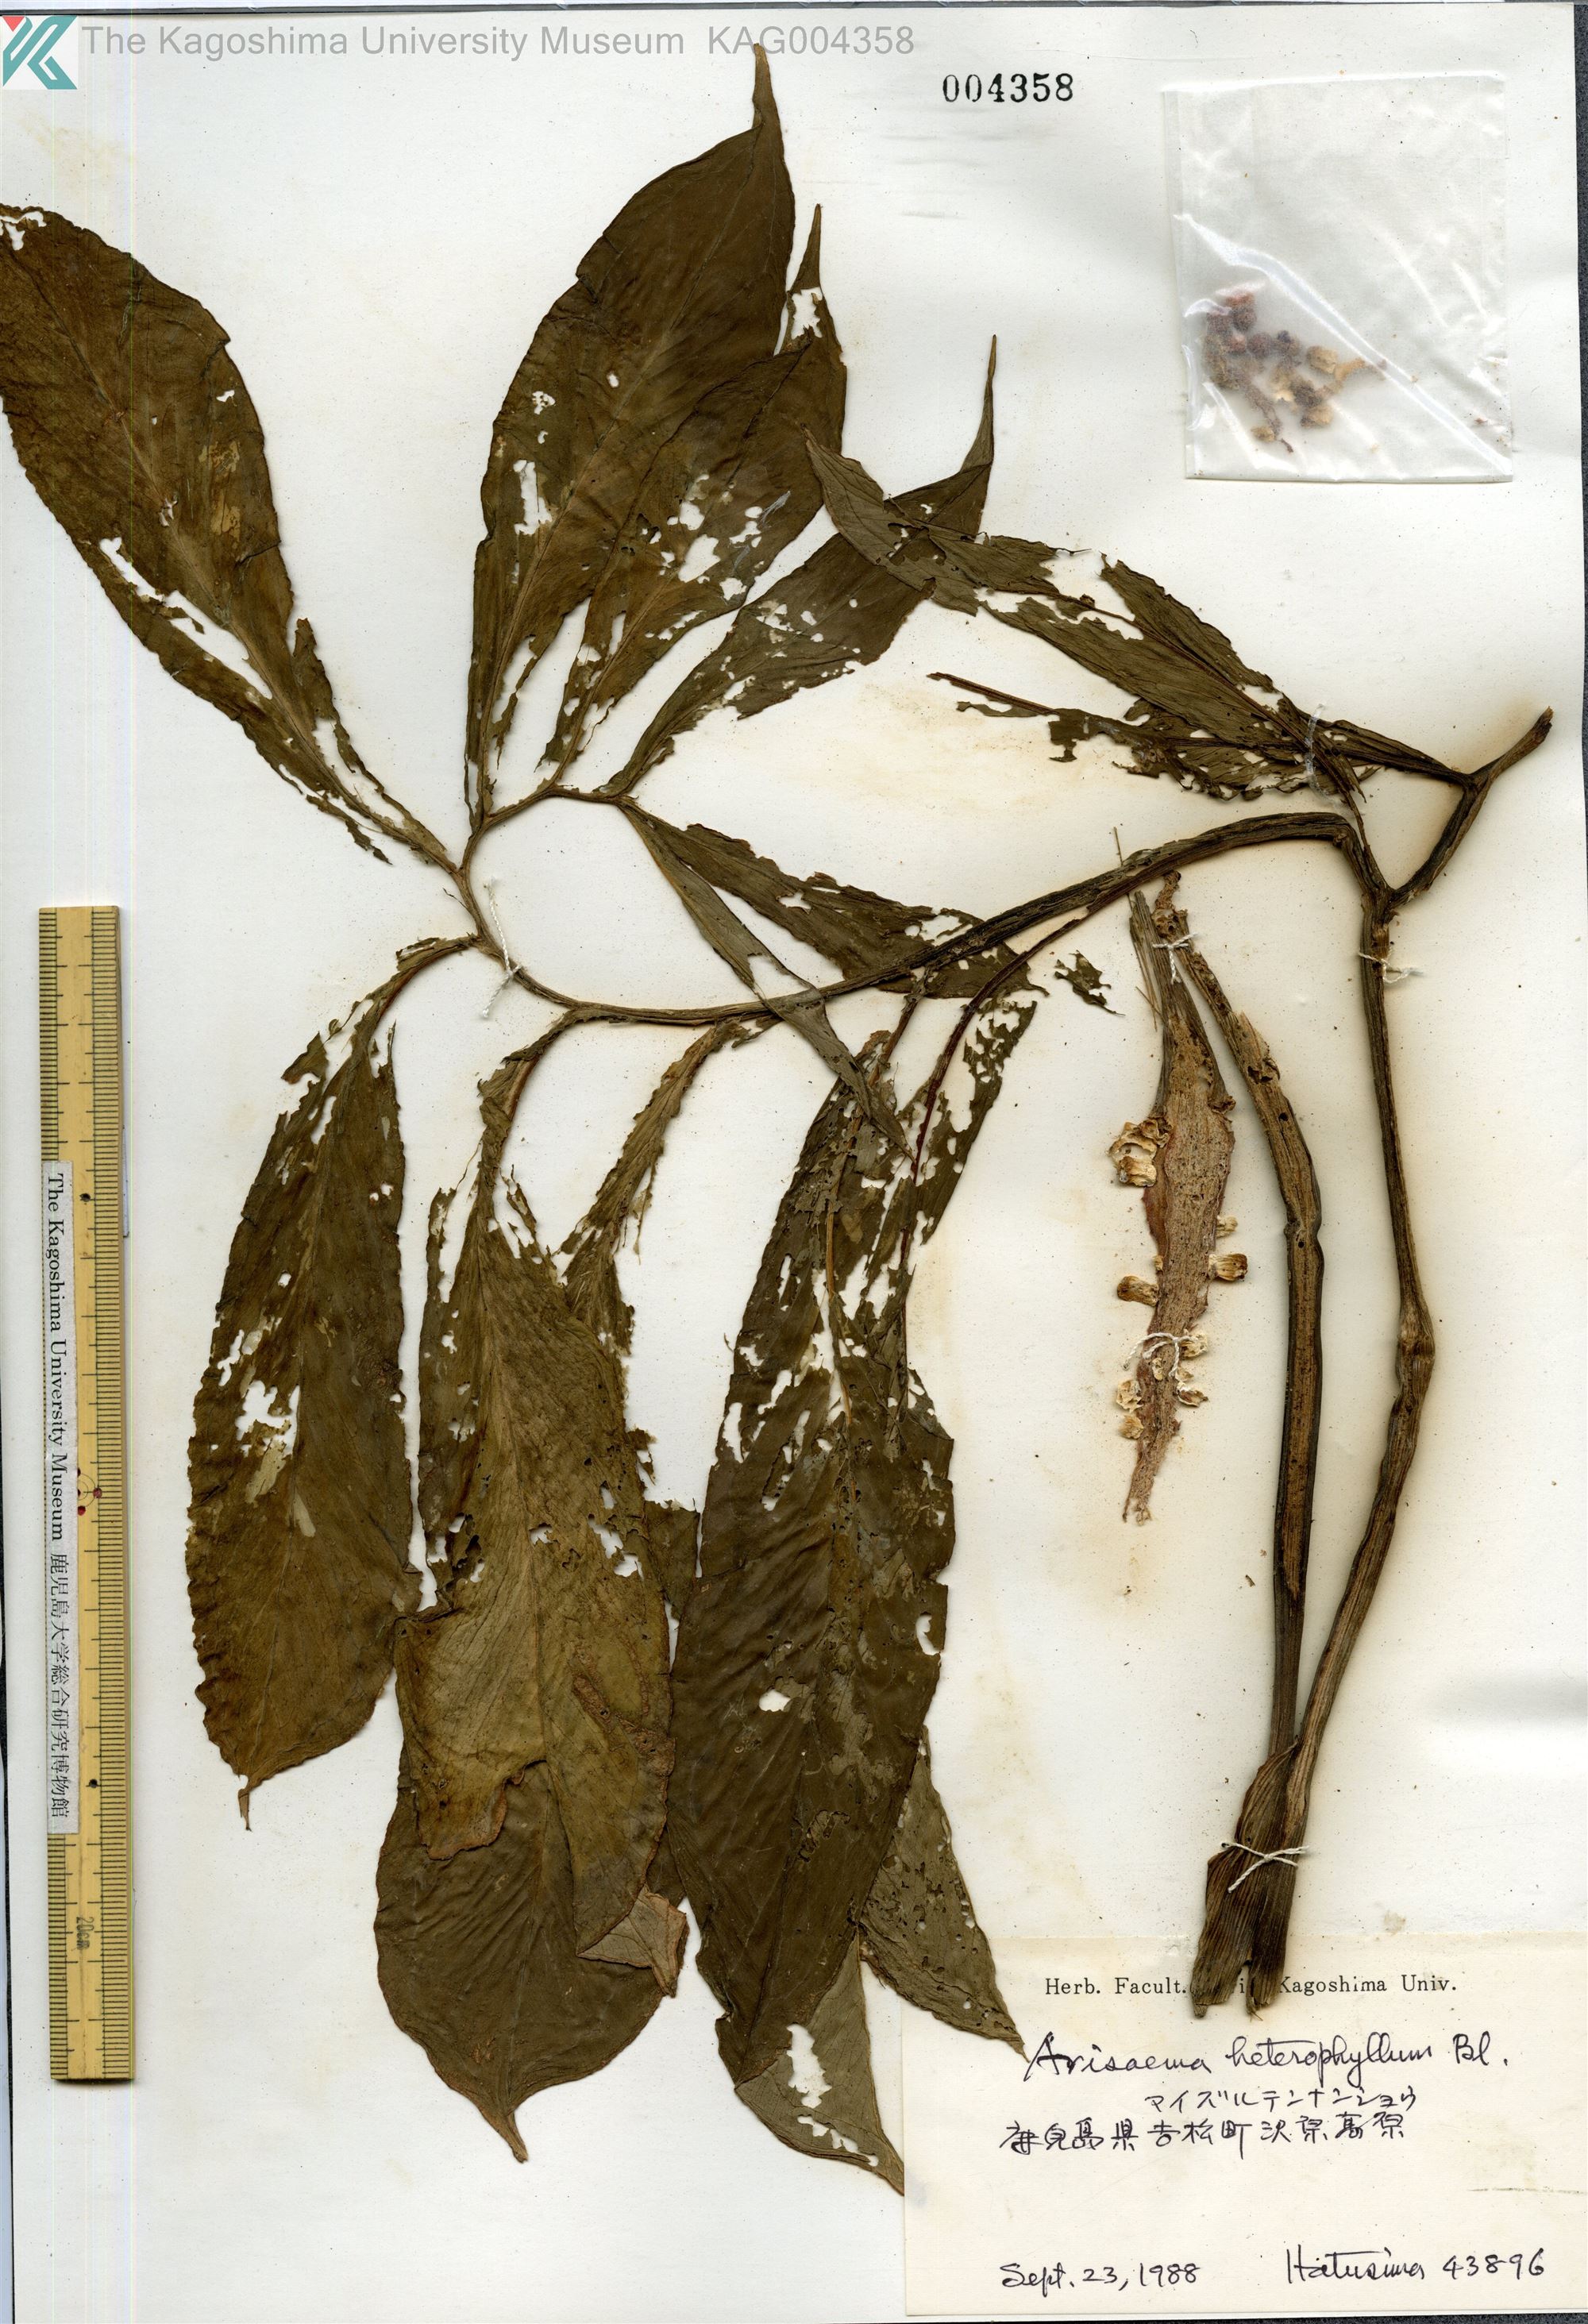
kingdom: Plantae
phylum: Tracheophyta
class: Liliopsida
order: Alismatales
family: Araceae
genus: Arisaema
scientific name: Arisaema heterophyllum
